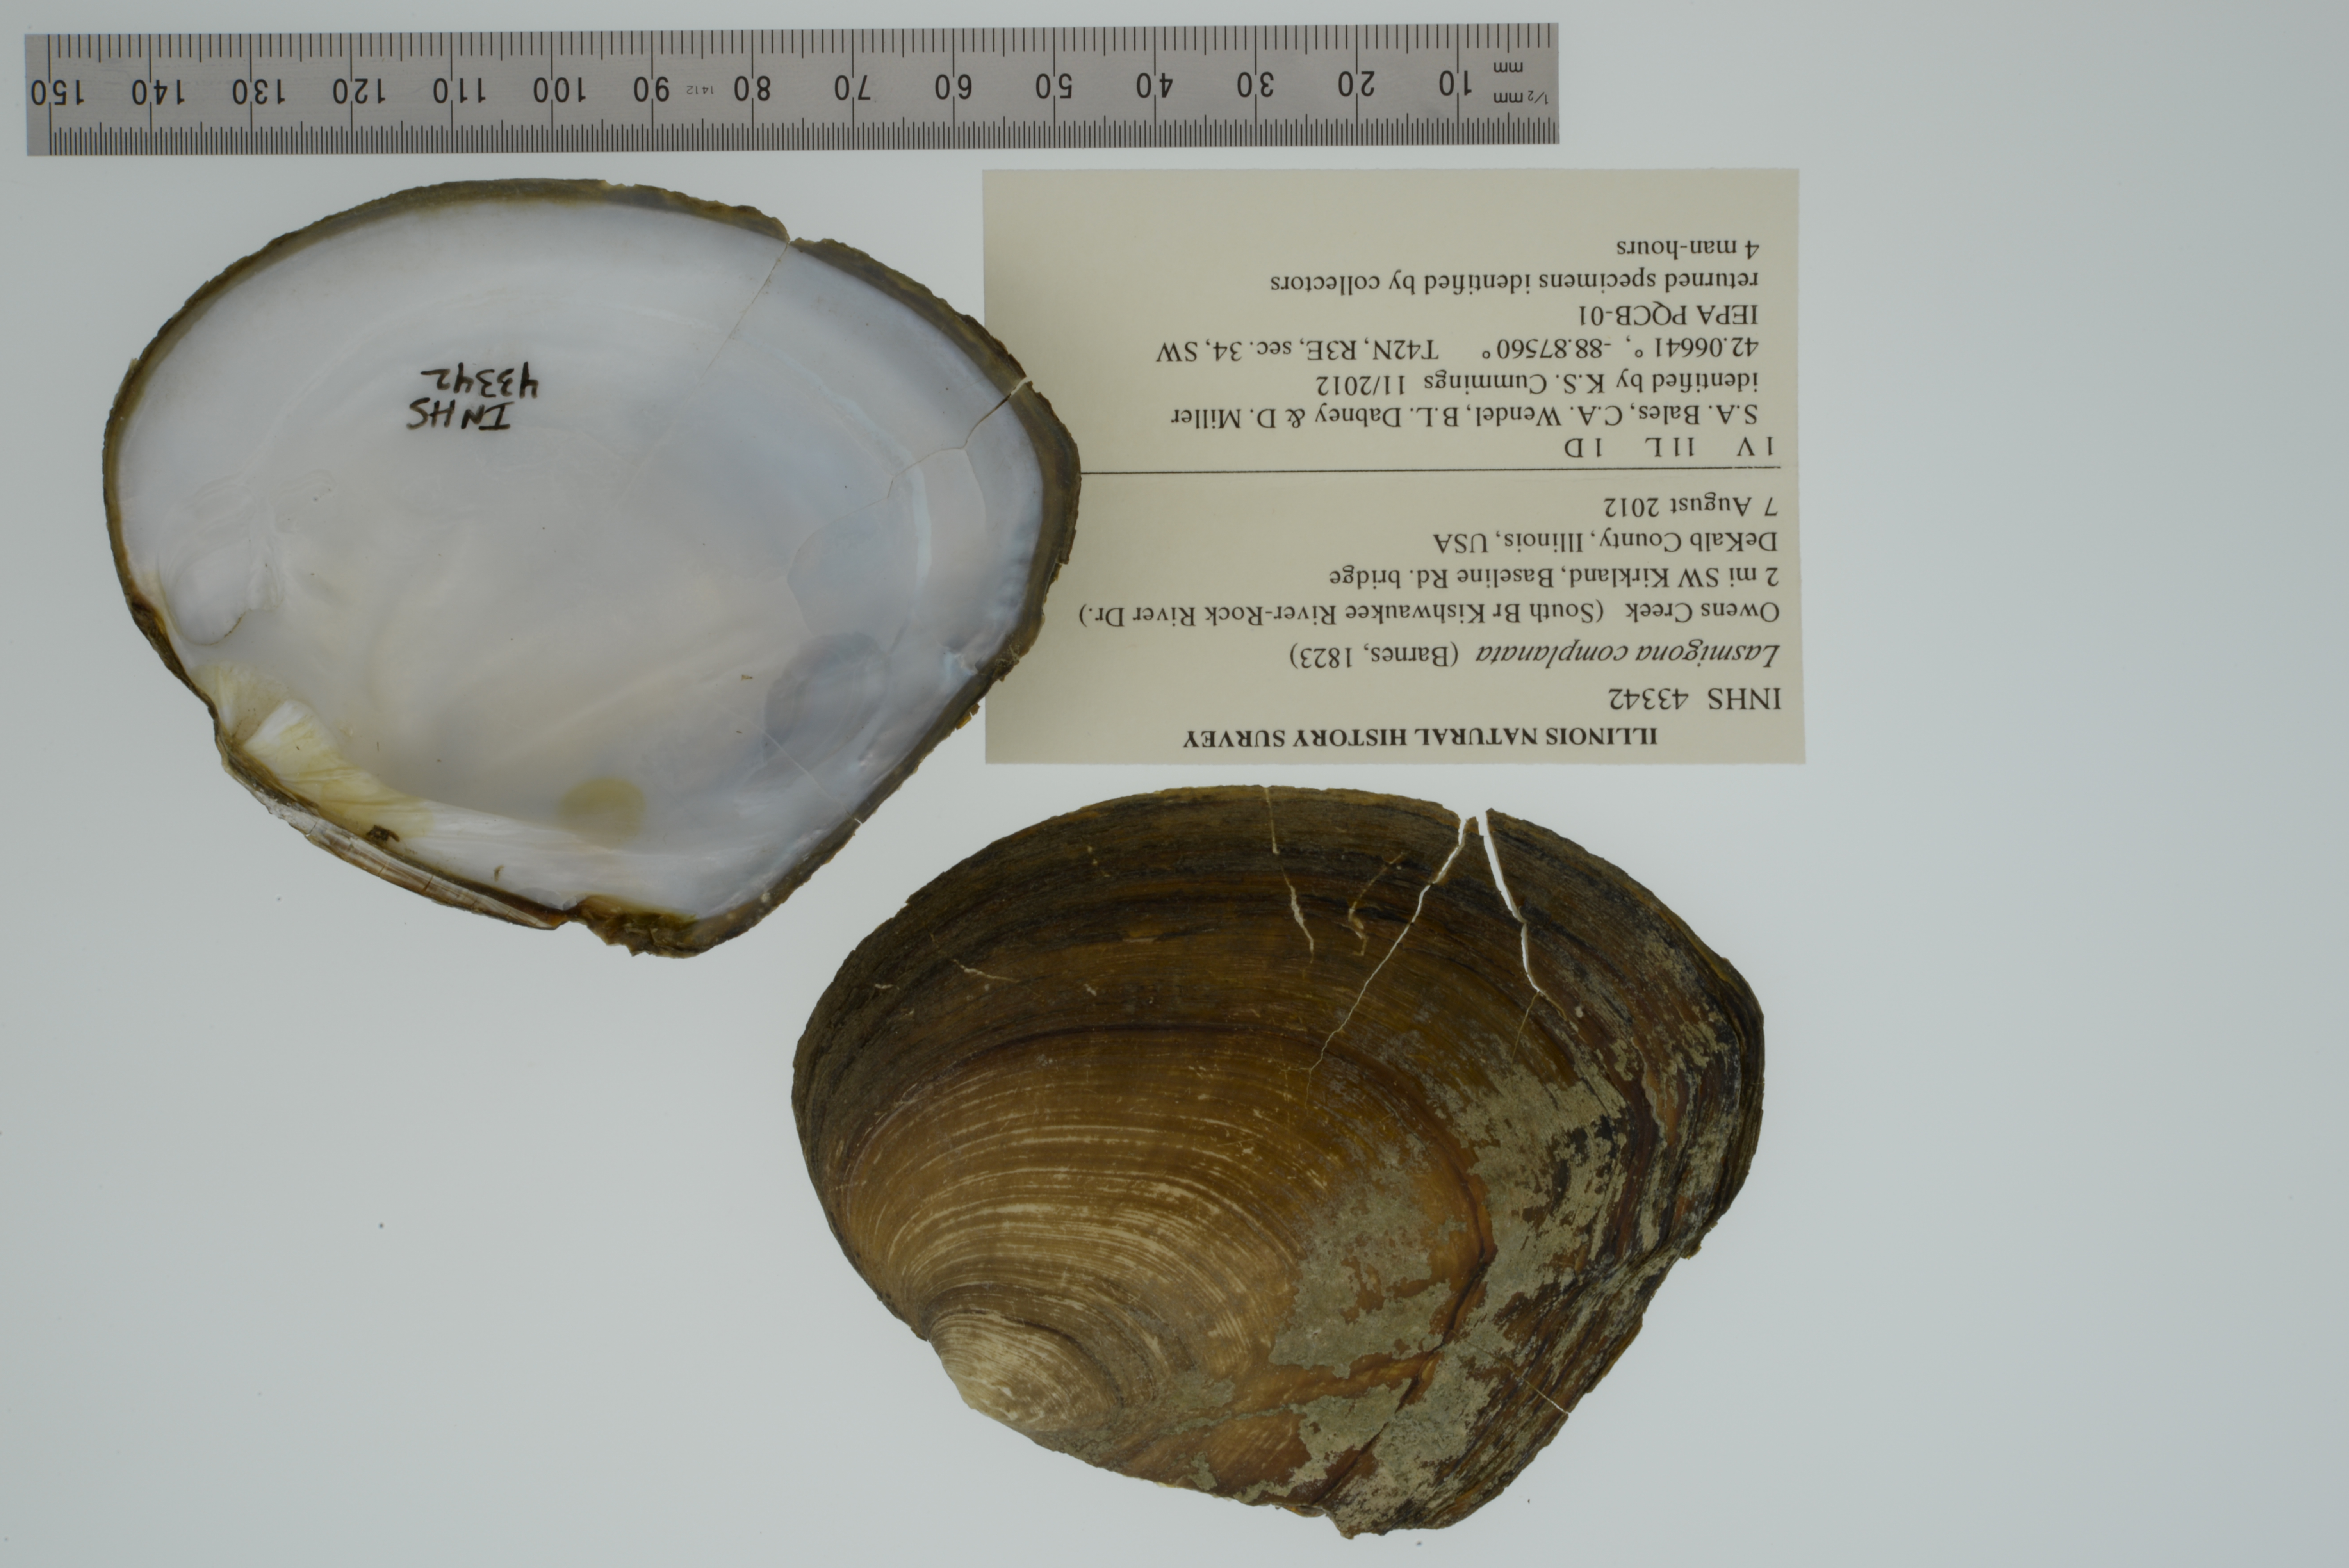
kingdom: Animalia
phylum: Mollusca
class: Bivalvia
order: Unionida
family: Unionidae
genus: Lasmigona
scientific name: Lasmigona complanata
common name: White heelsplitter
